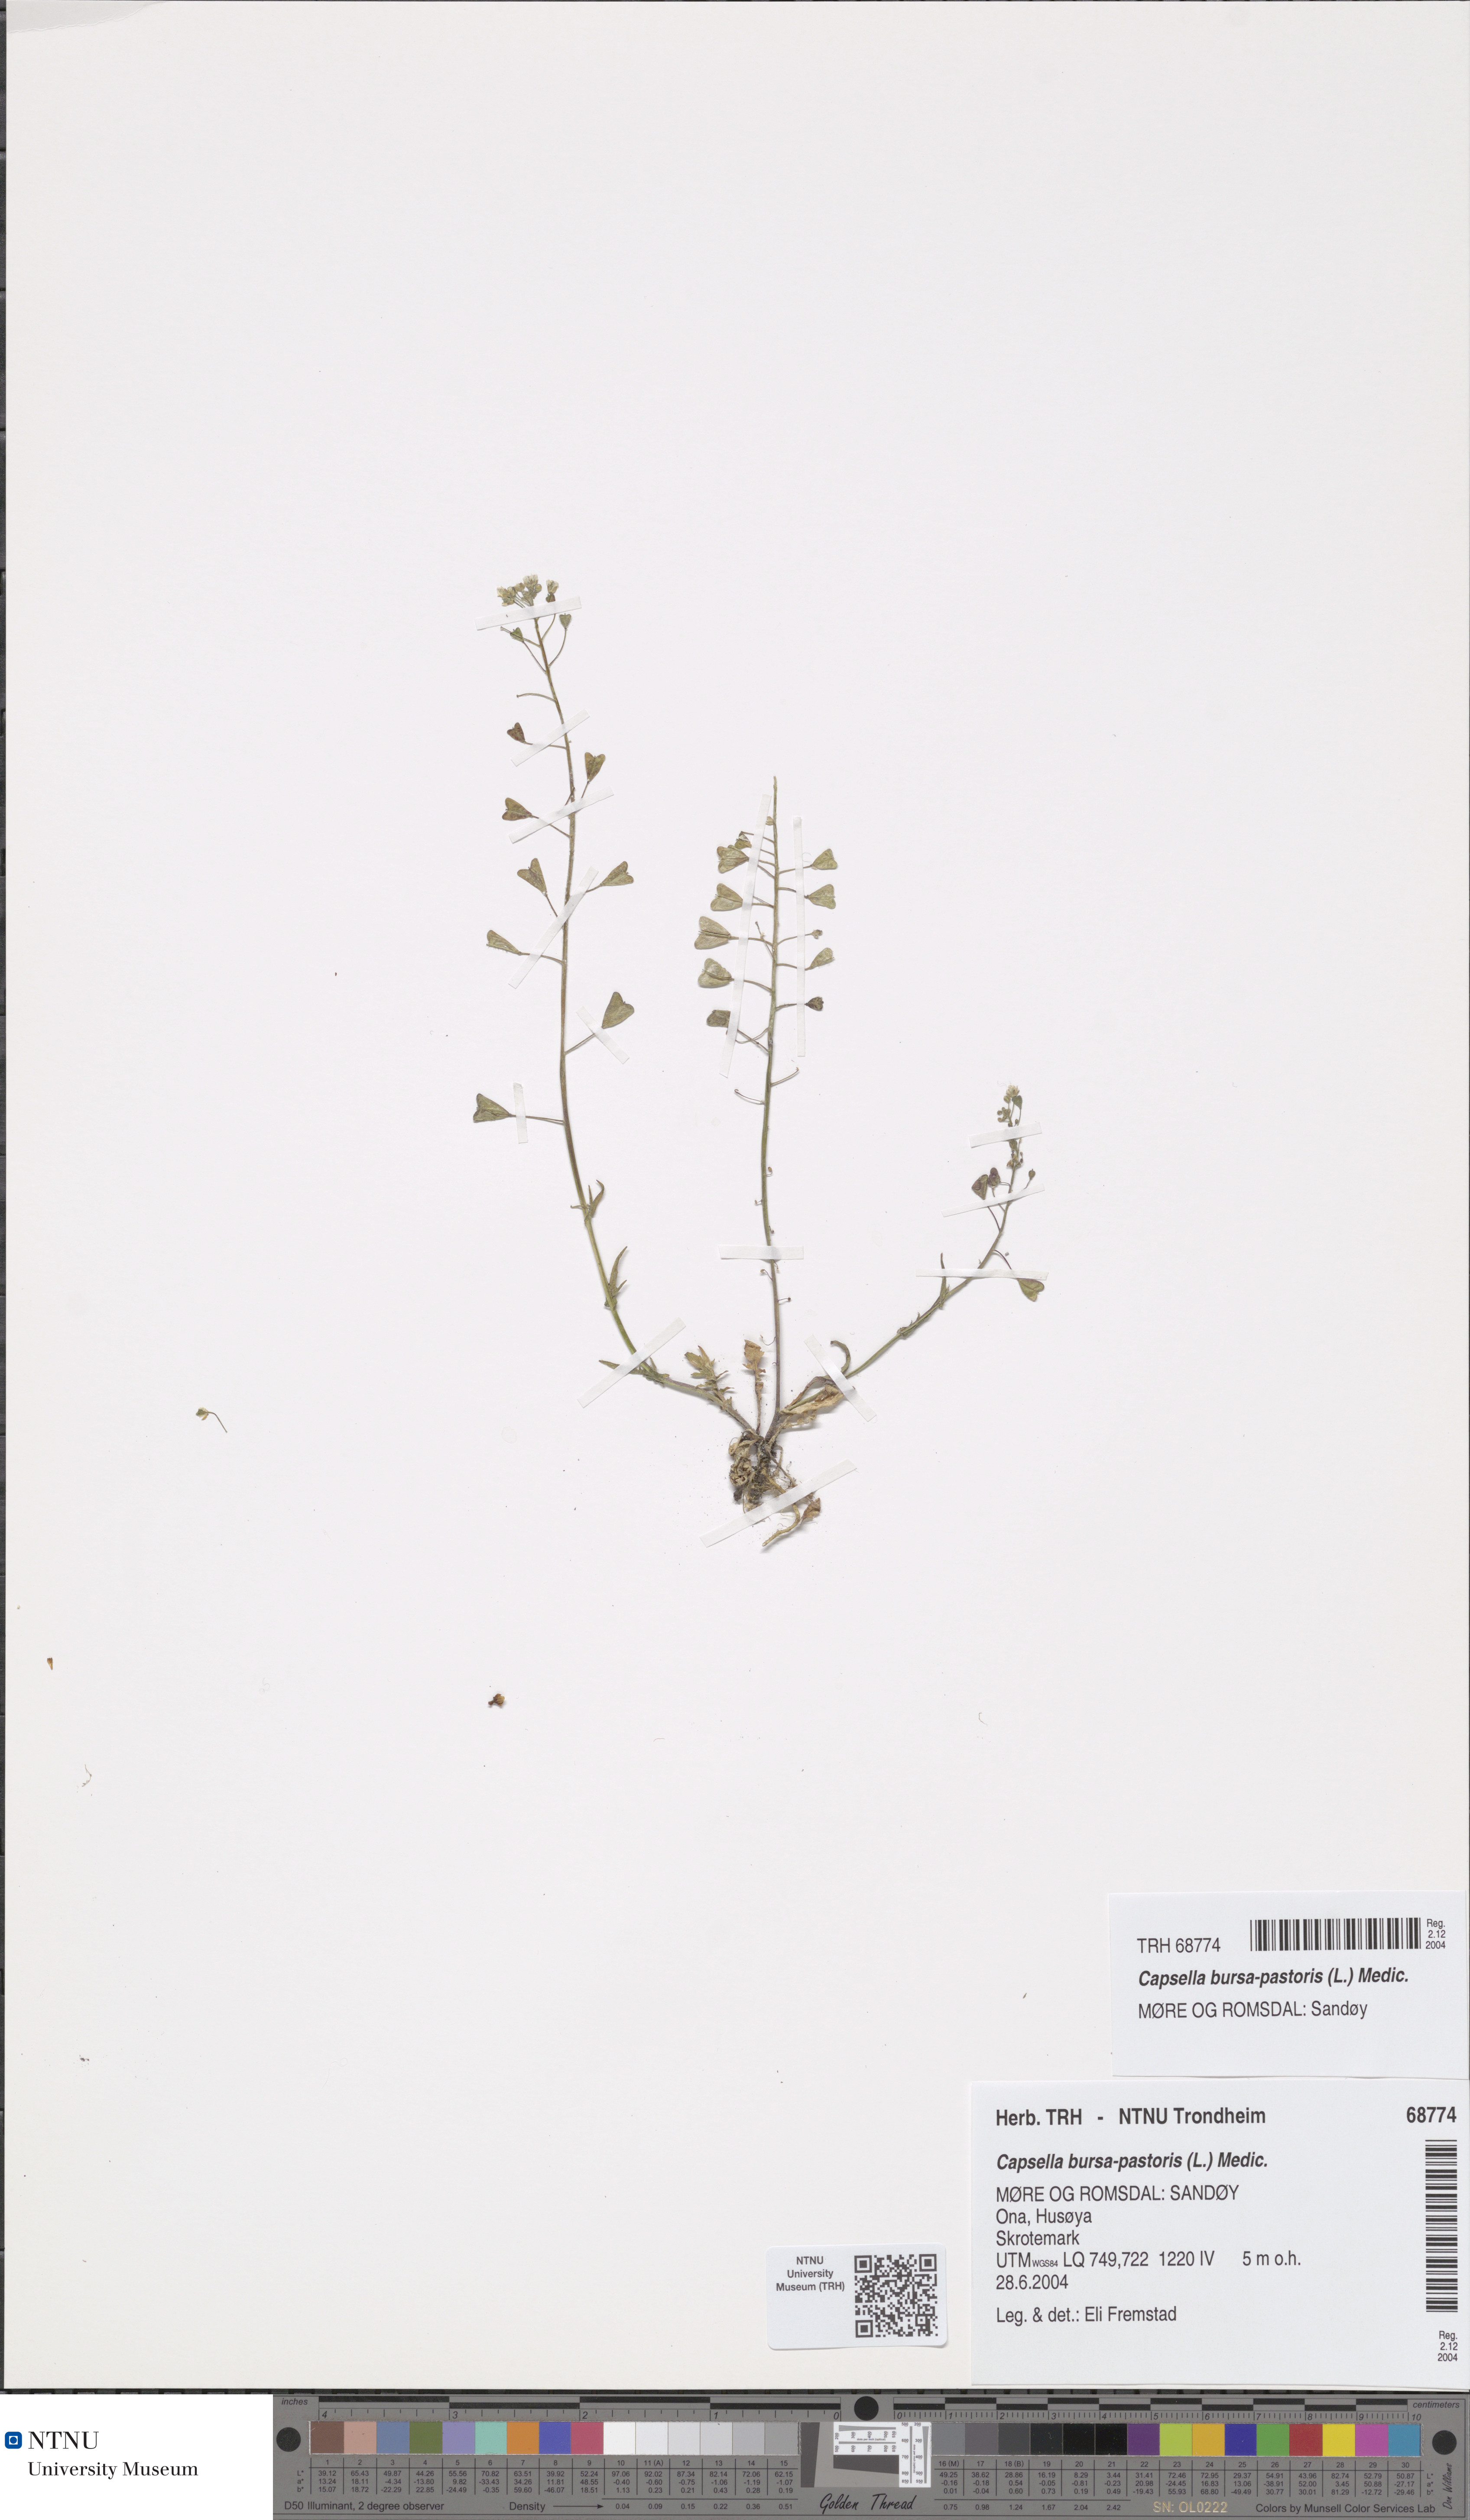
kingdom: Plantae
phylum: Tracheophyta
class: Magnoliopsida
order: Brassicales
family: Brassicaceae
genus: Capsella
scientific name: Capsella bursa-pastoris
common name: Shepherd's purse
